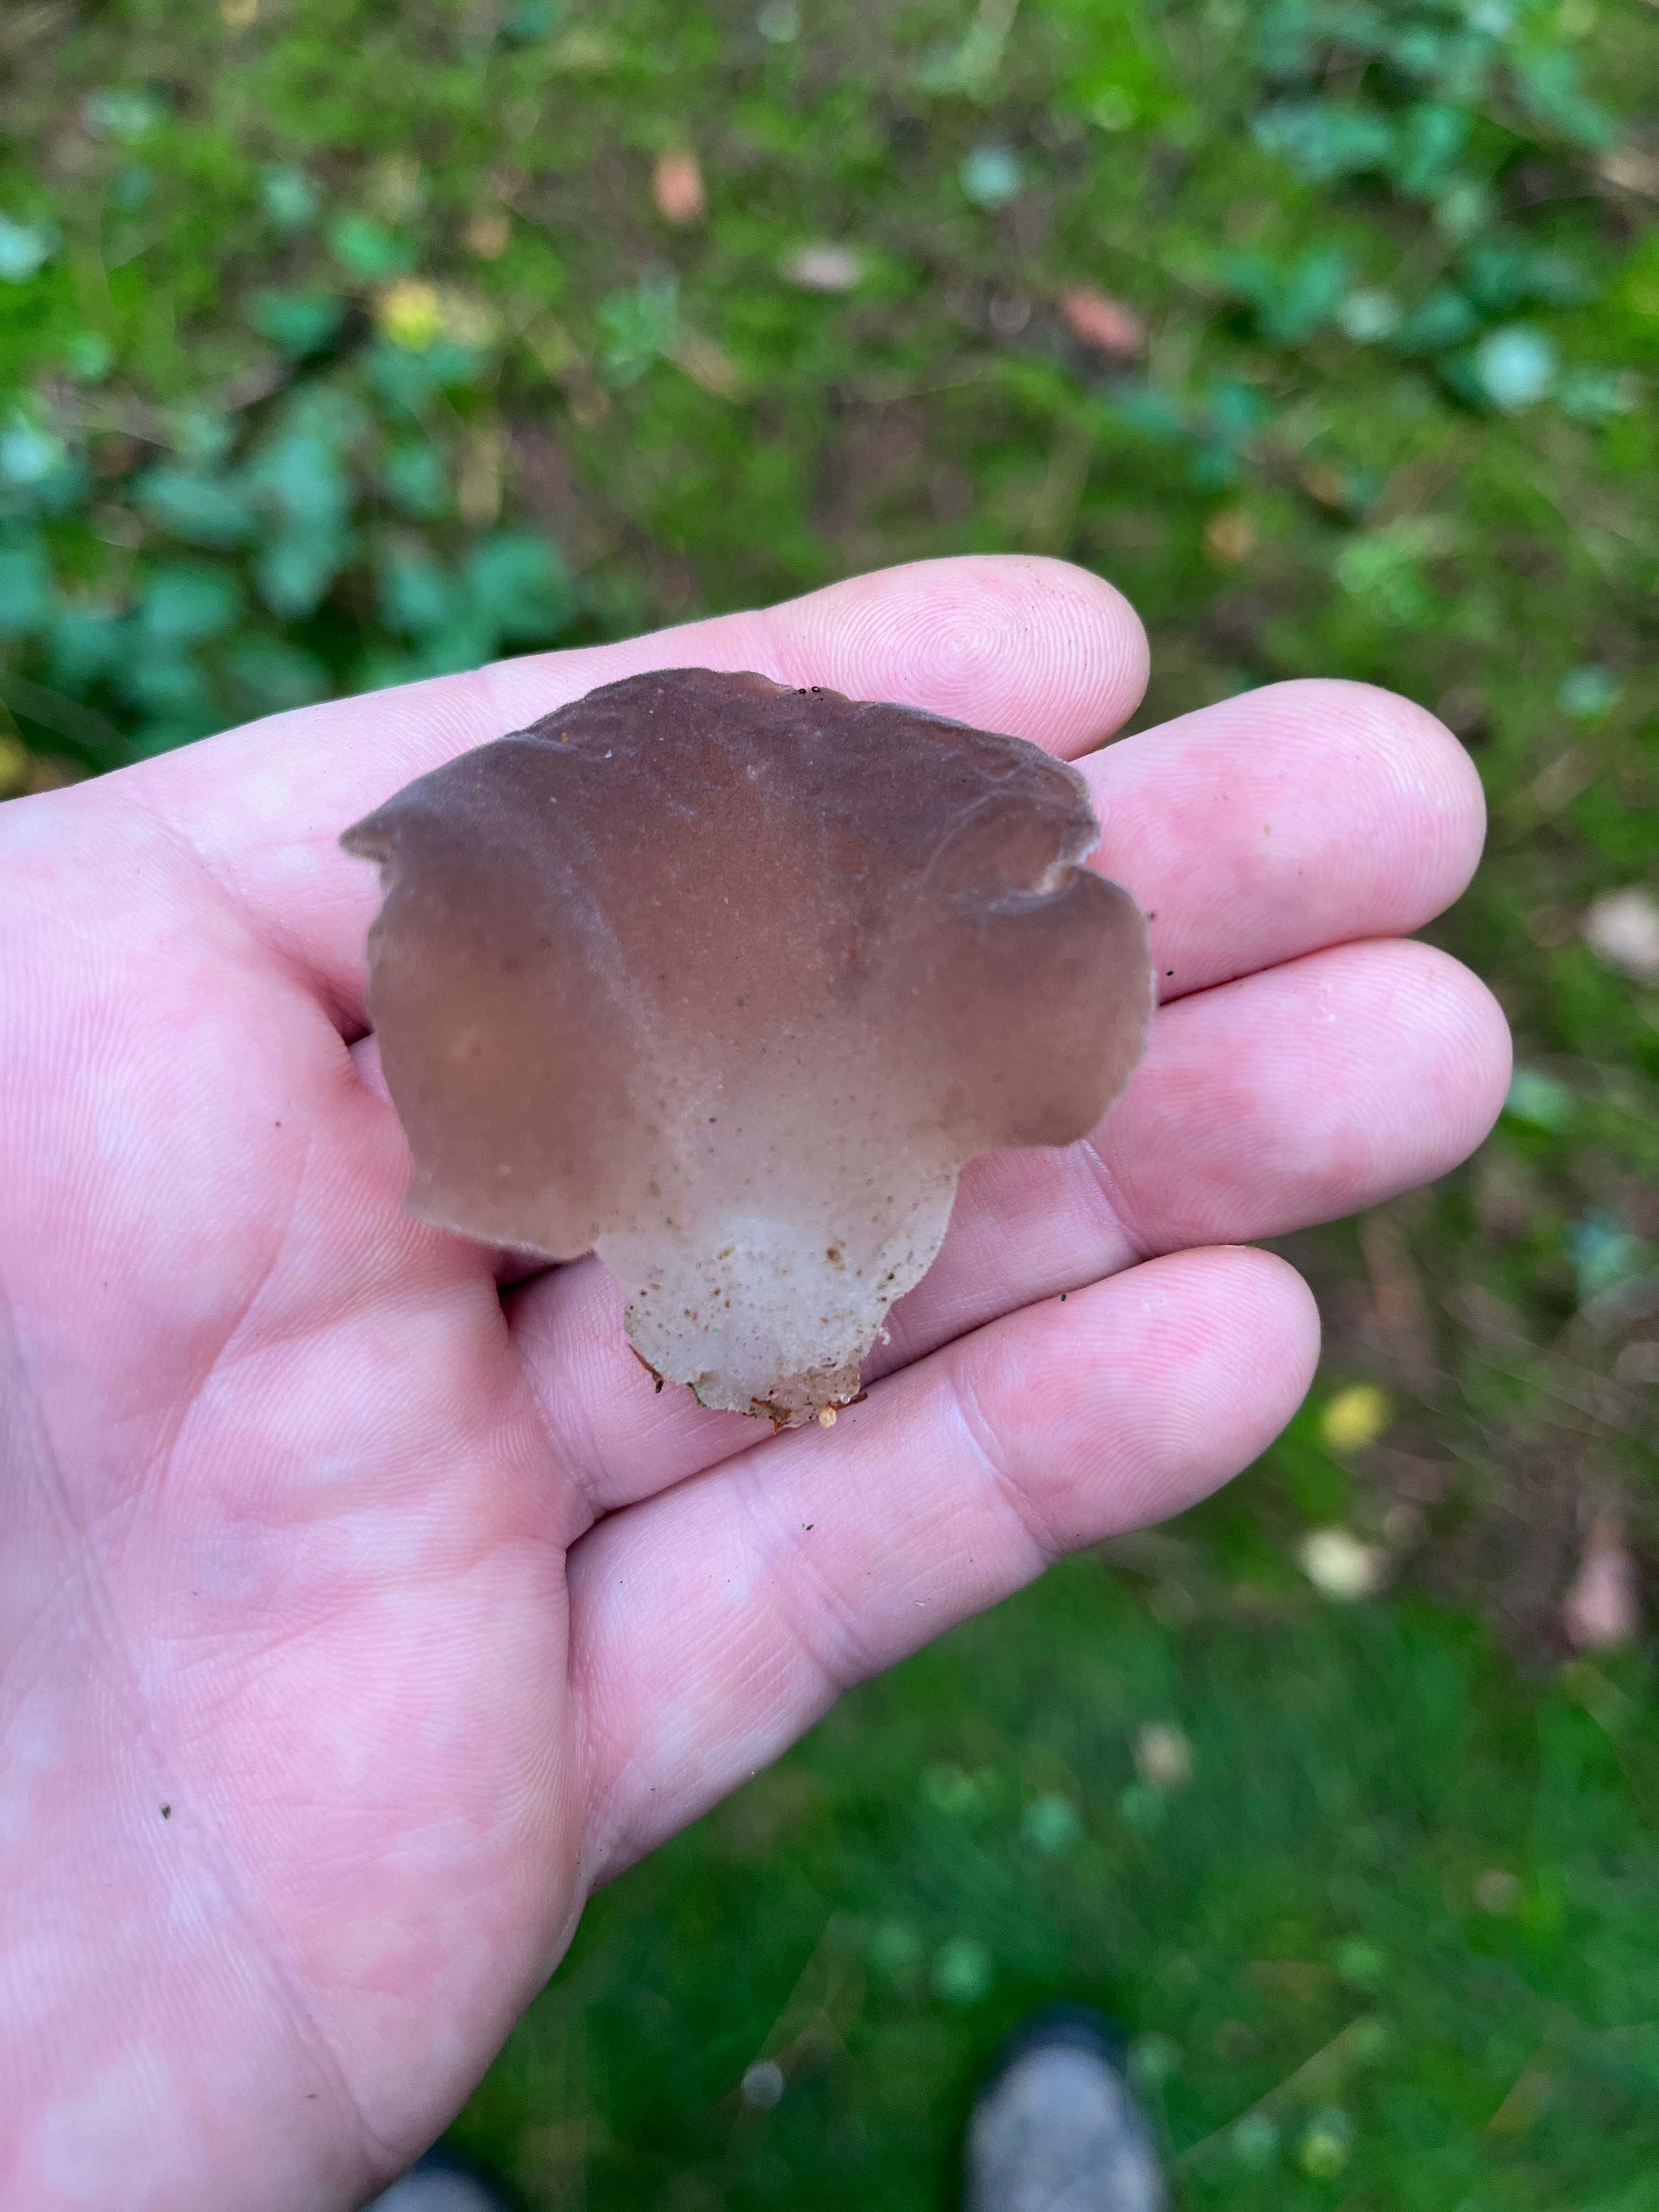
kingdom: Fungi
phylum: Basidiomycota
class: Agaricomycetes
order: Auriculariales
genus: Pseudohydnum
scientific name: Pseudohydnum gelatinosum
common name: bævretand
